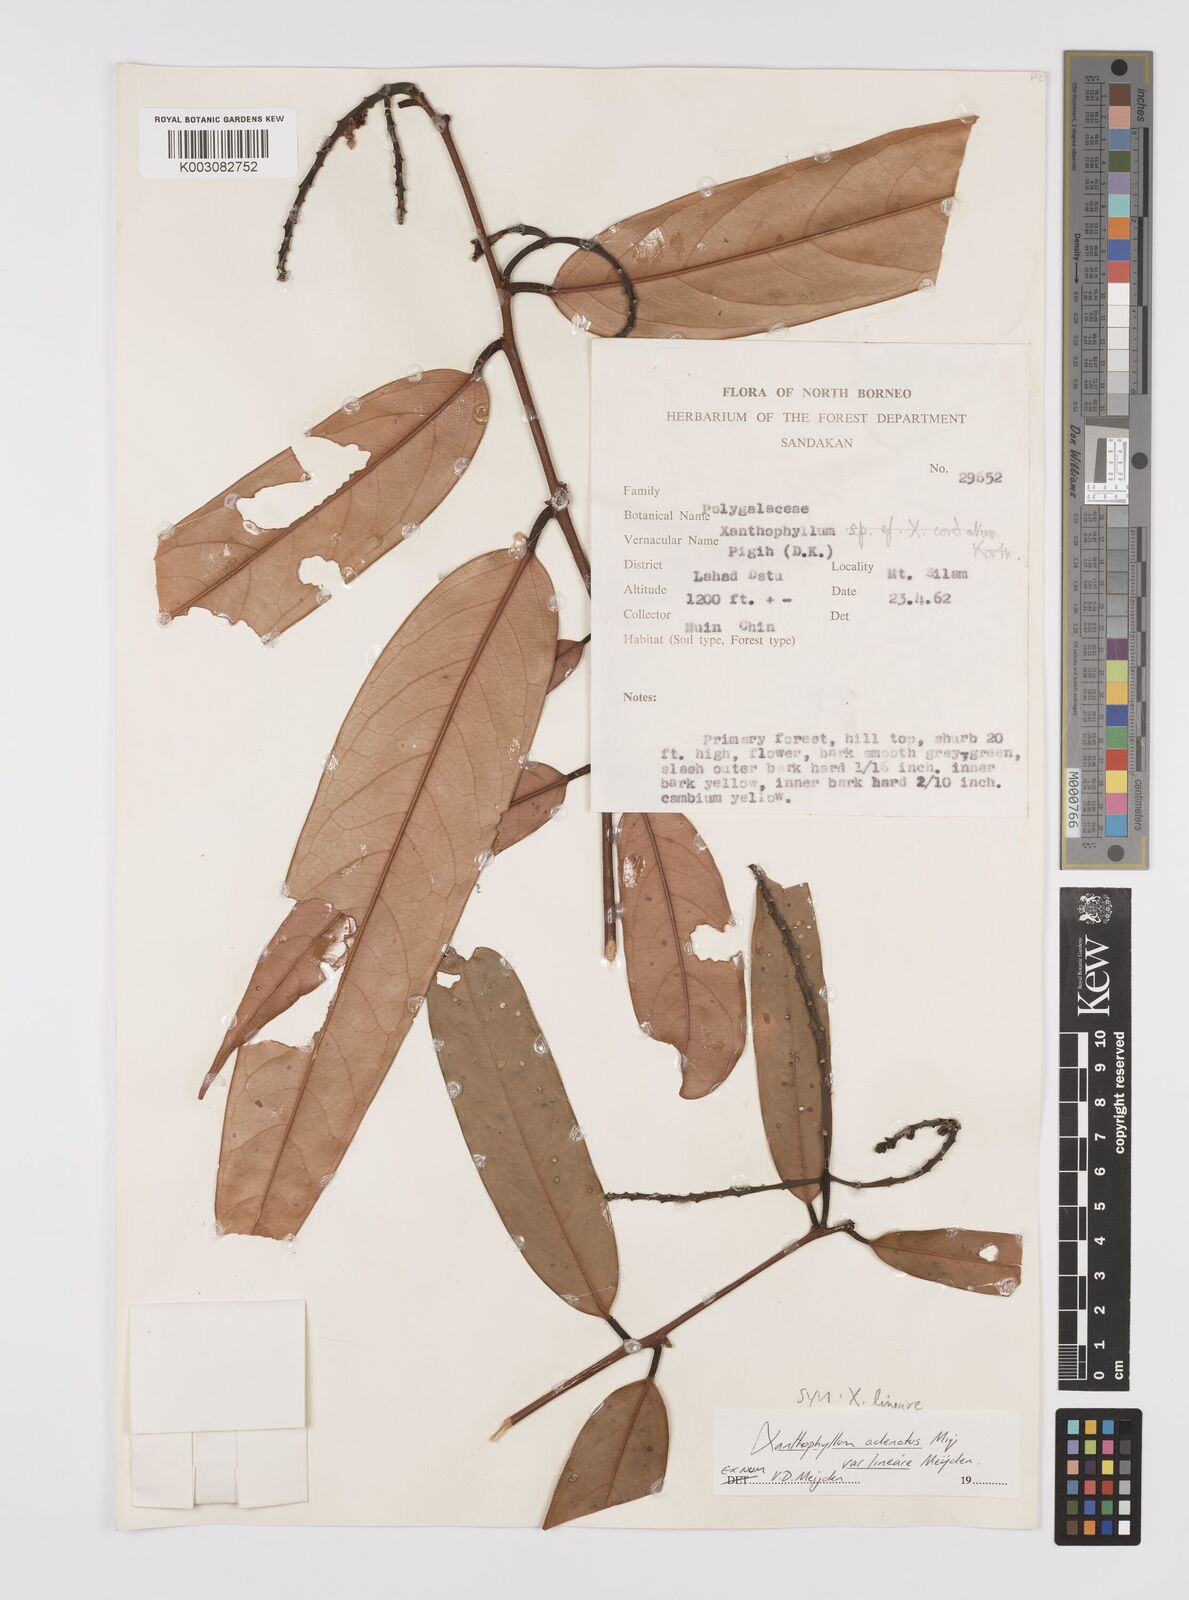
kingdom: Plantae
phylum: Tracheophyta
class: Magnoliopsida
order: Fabales
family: Polygalaceae
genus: Xanthophyllum
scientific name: Xanthophyllum lineare
